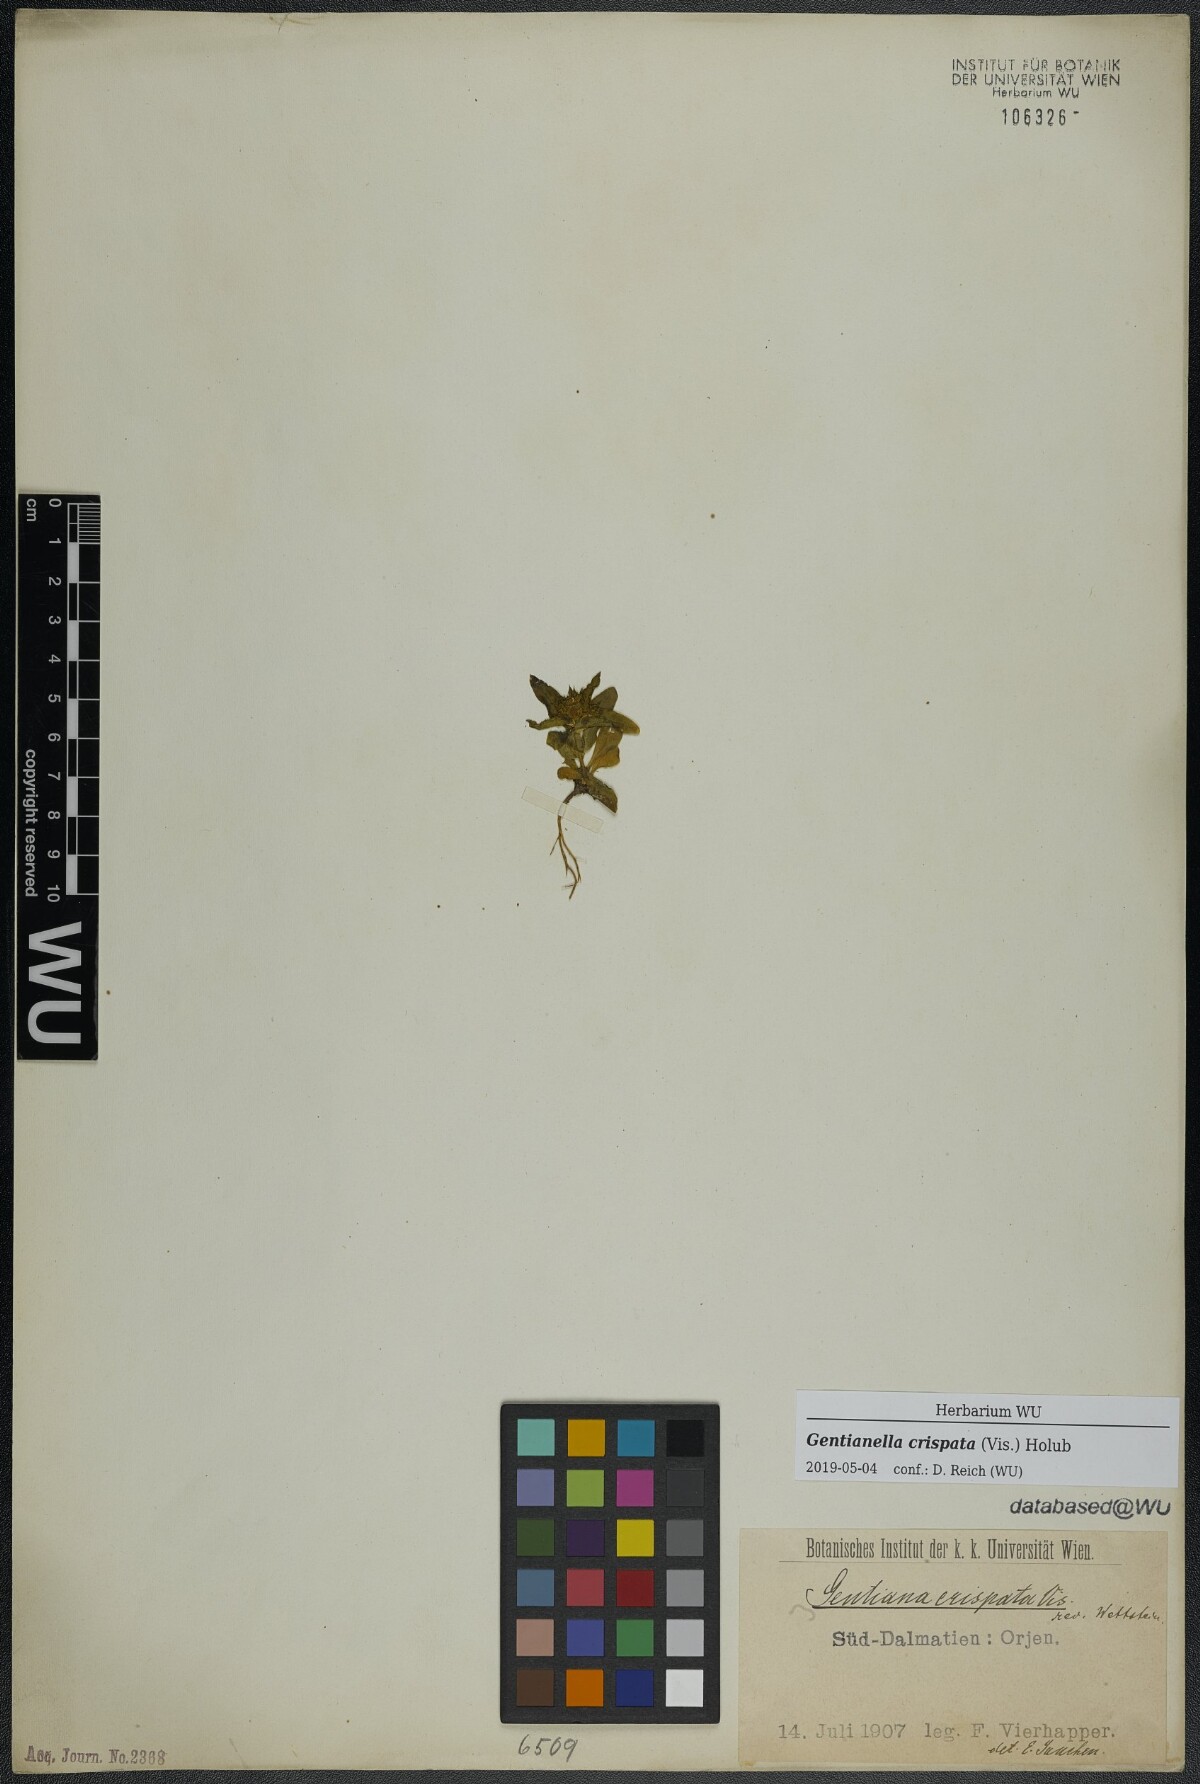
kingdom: Plantae
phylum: Tracheophyta
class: Magnoliopsida
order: Gentianales
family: Gentianaceae
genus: Gentianella
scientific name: Gentianella crispata
